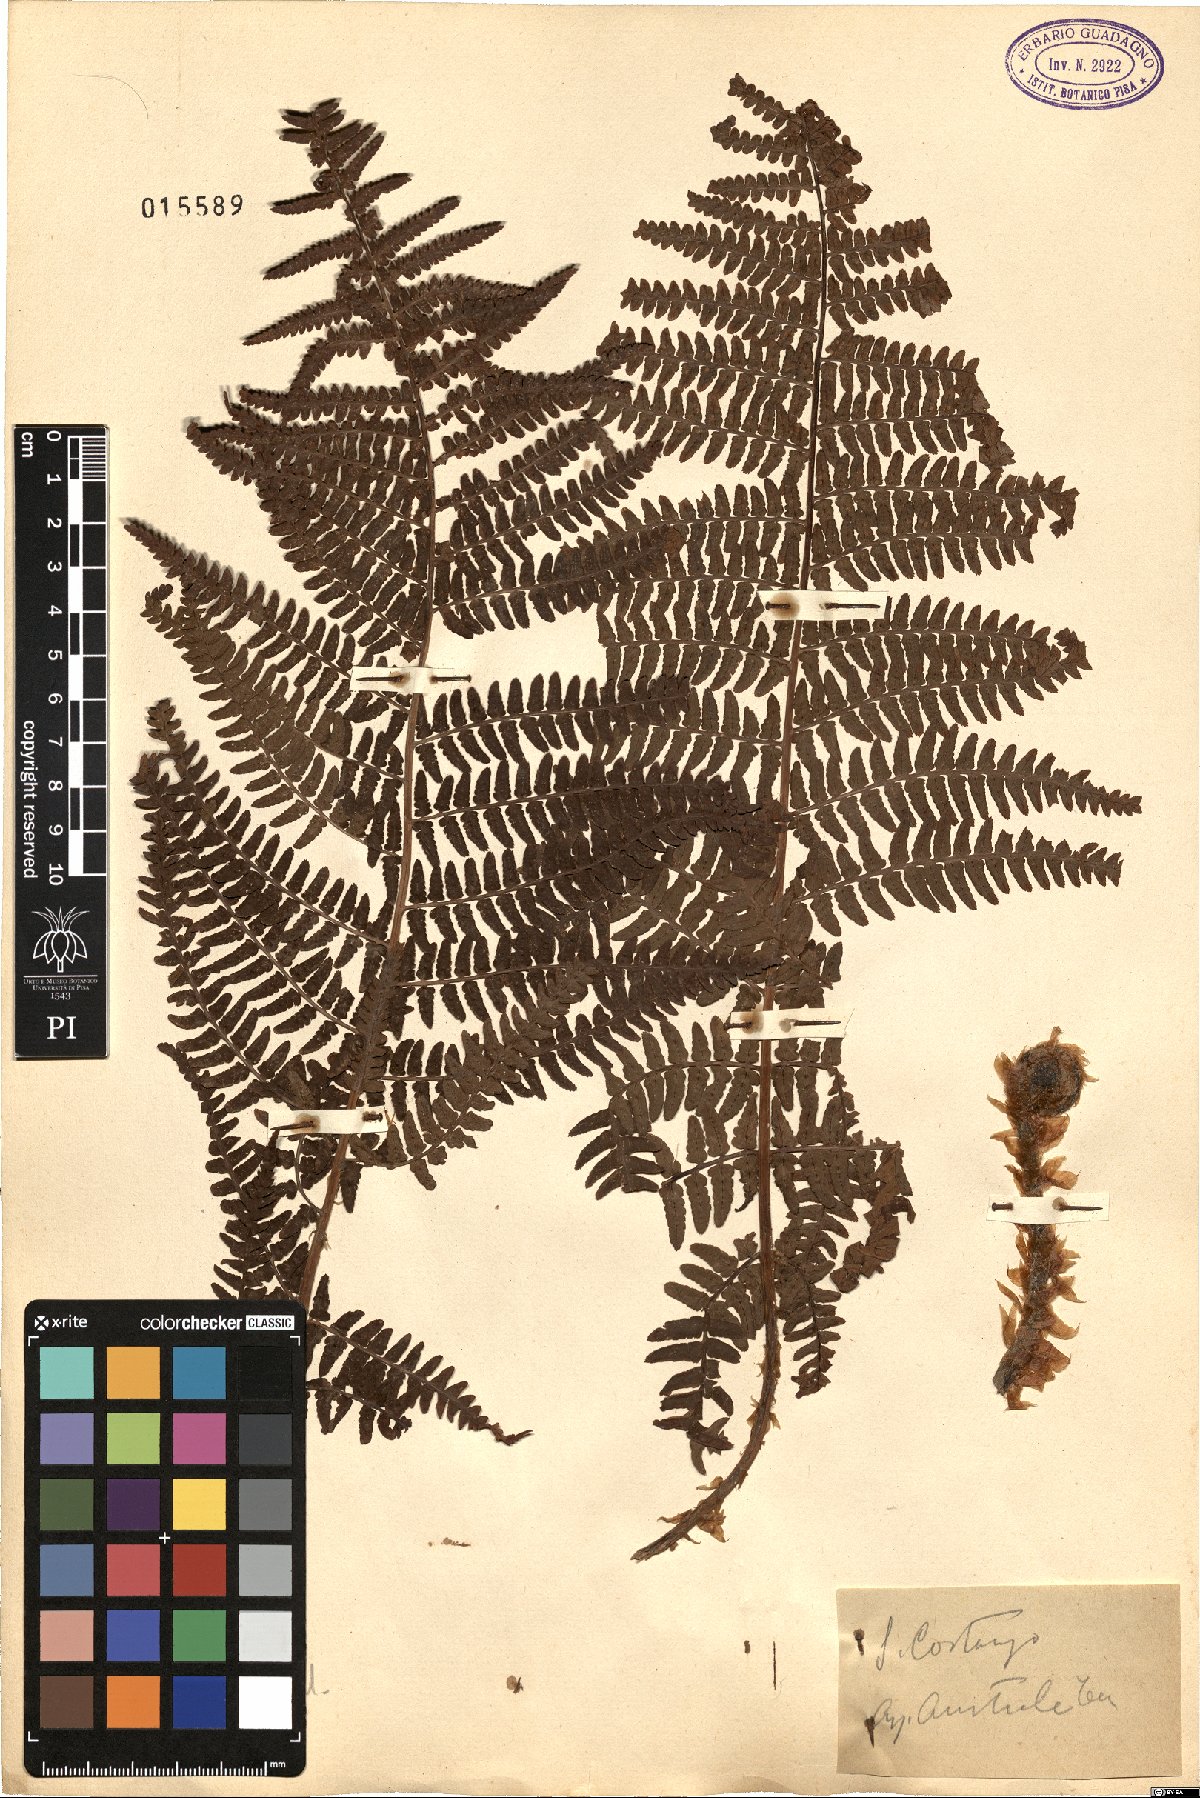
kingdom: Plantae
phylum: Tracheophyta
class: Polypodiopsida
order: Polypodiales
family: Dryopteridaceae
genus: Dryopteris
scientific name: Dryopteris pallida
